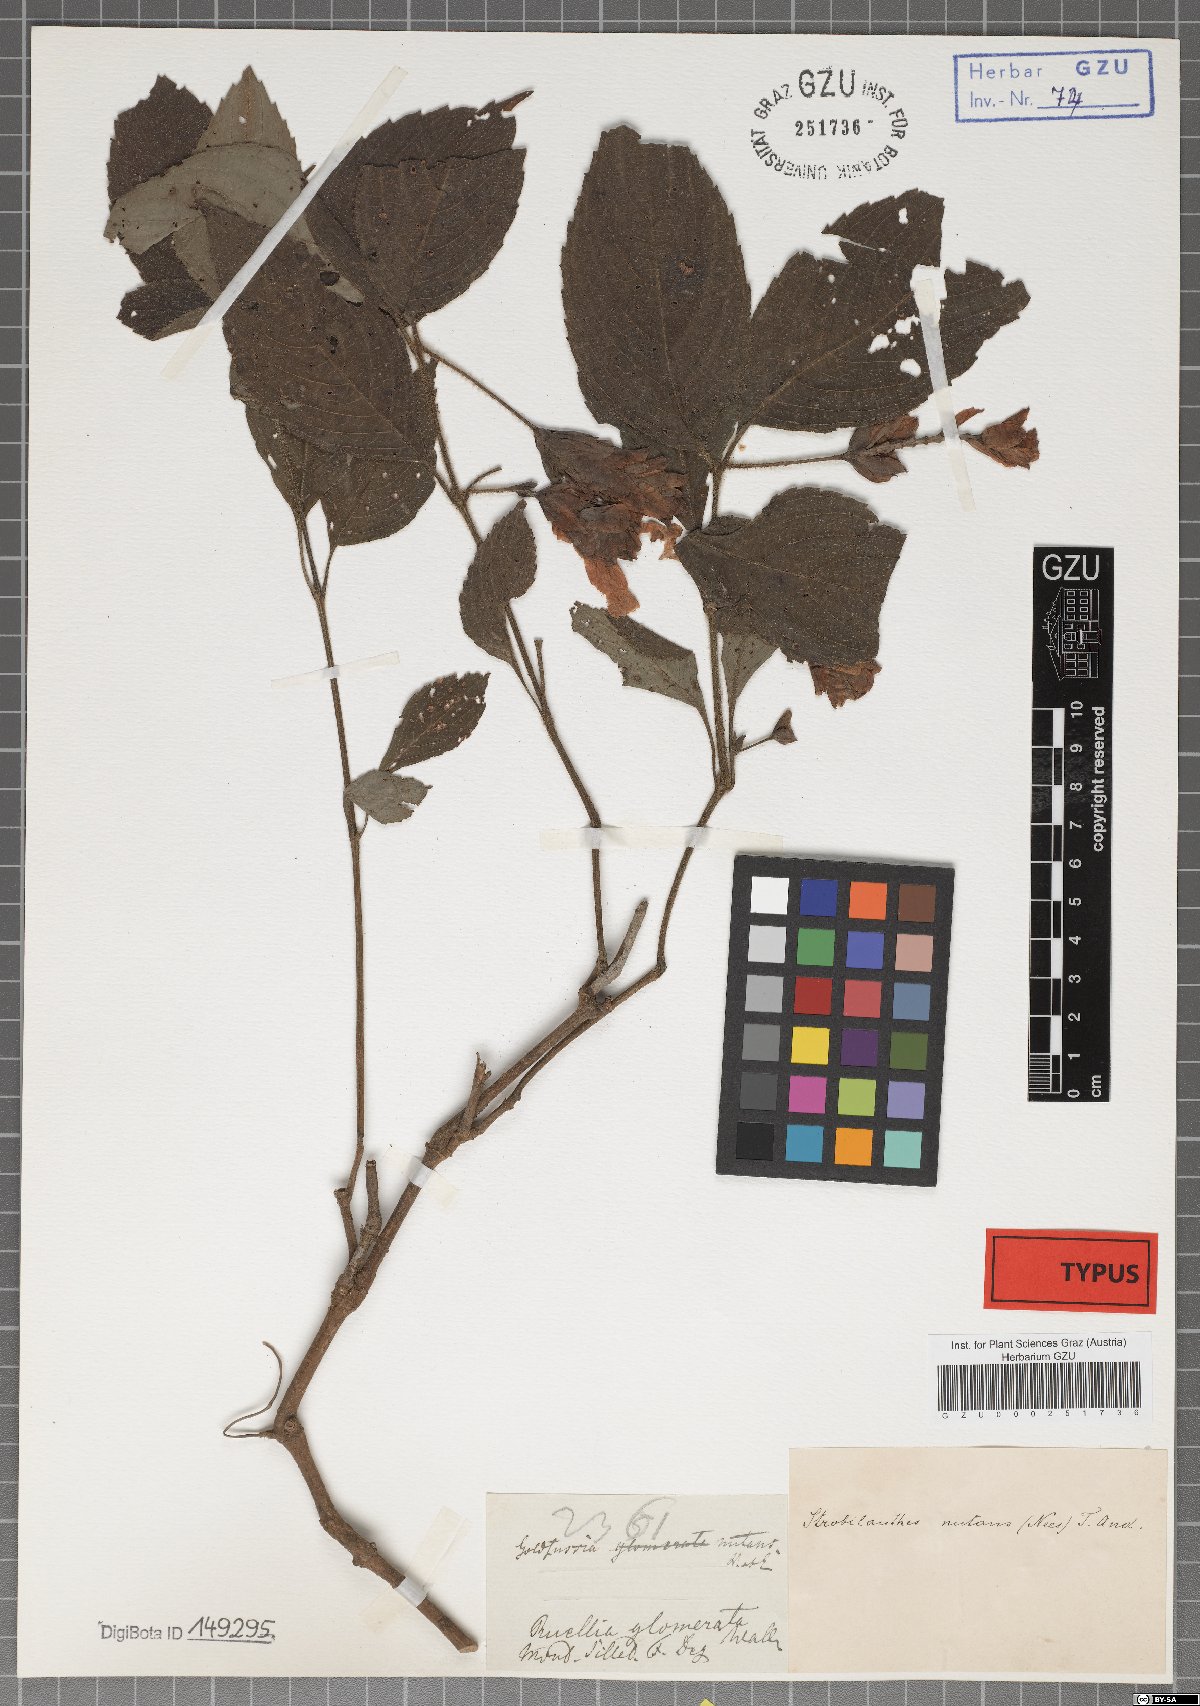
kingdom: Plantae
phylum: Tracheophyta
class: Magnoliopsida
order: Lamiales
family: Acanthaceae
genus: Strobilanthes
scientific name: Strobilanthes nutans
